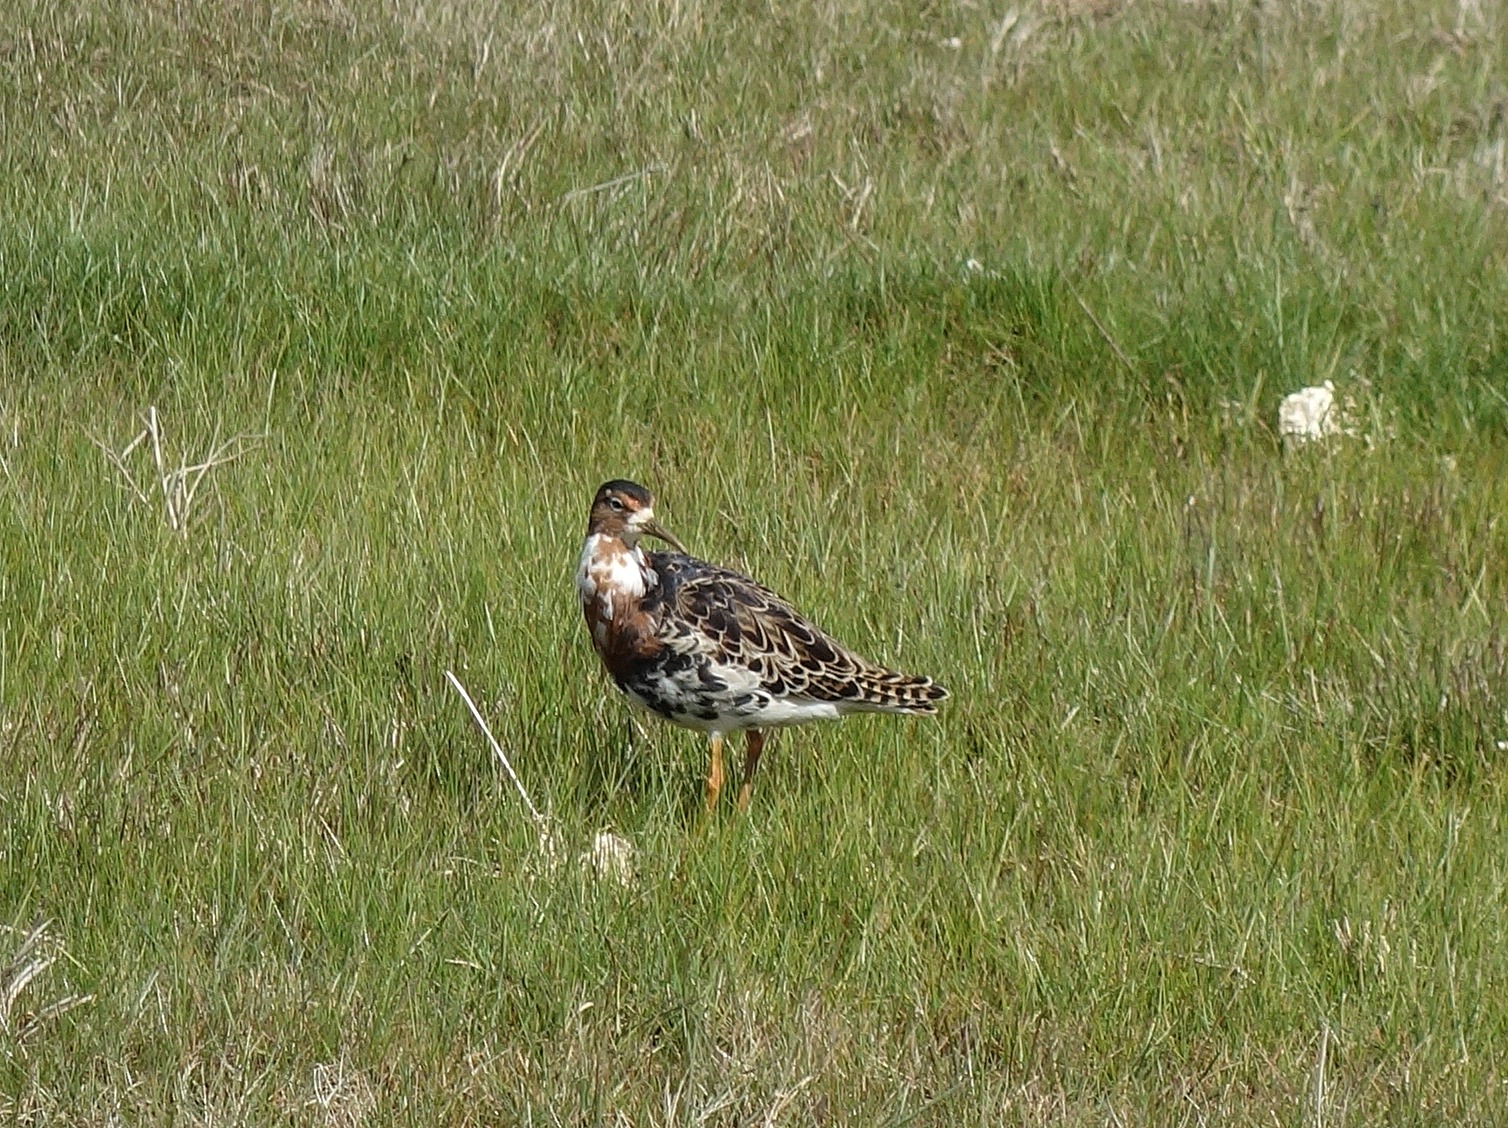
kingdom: Animalia
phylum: Chordata
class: Aves
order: Charadriiformes
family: Scolopacidae
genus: Calidris
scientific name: Calidris pugnax
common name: Brushane
